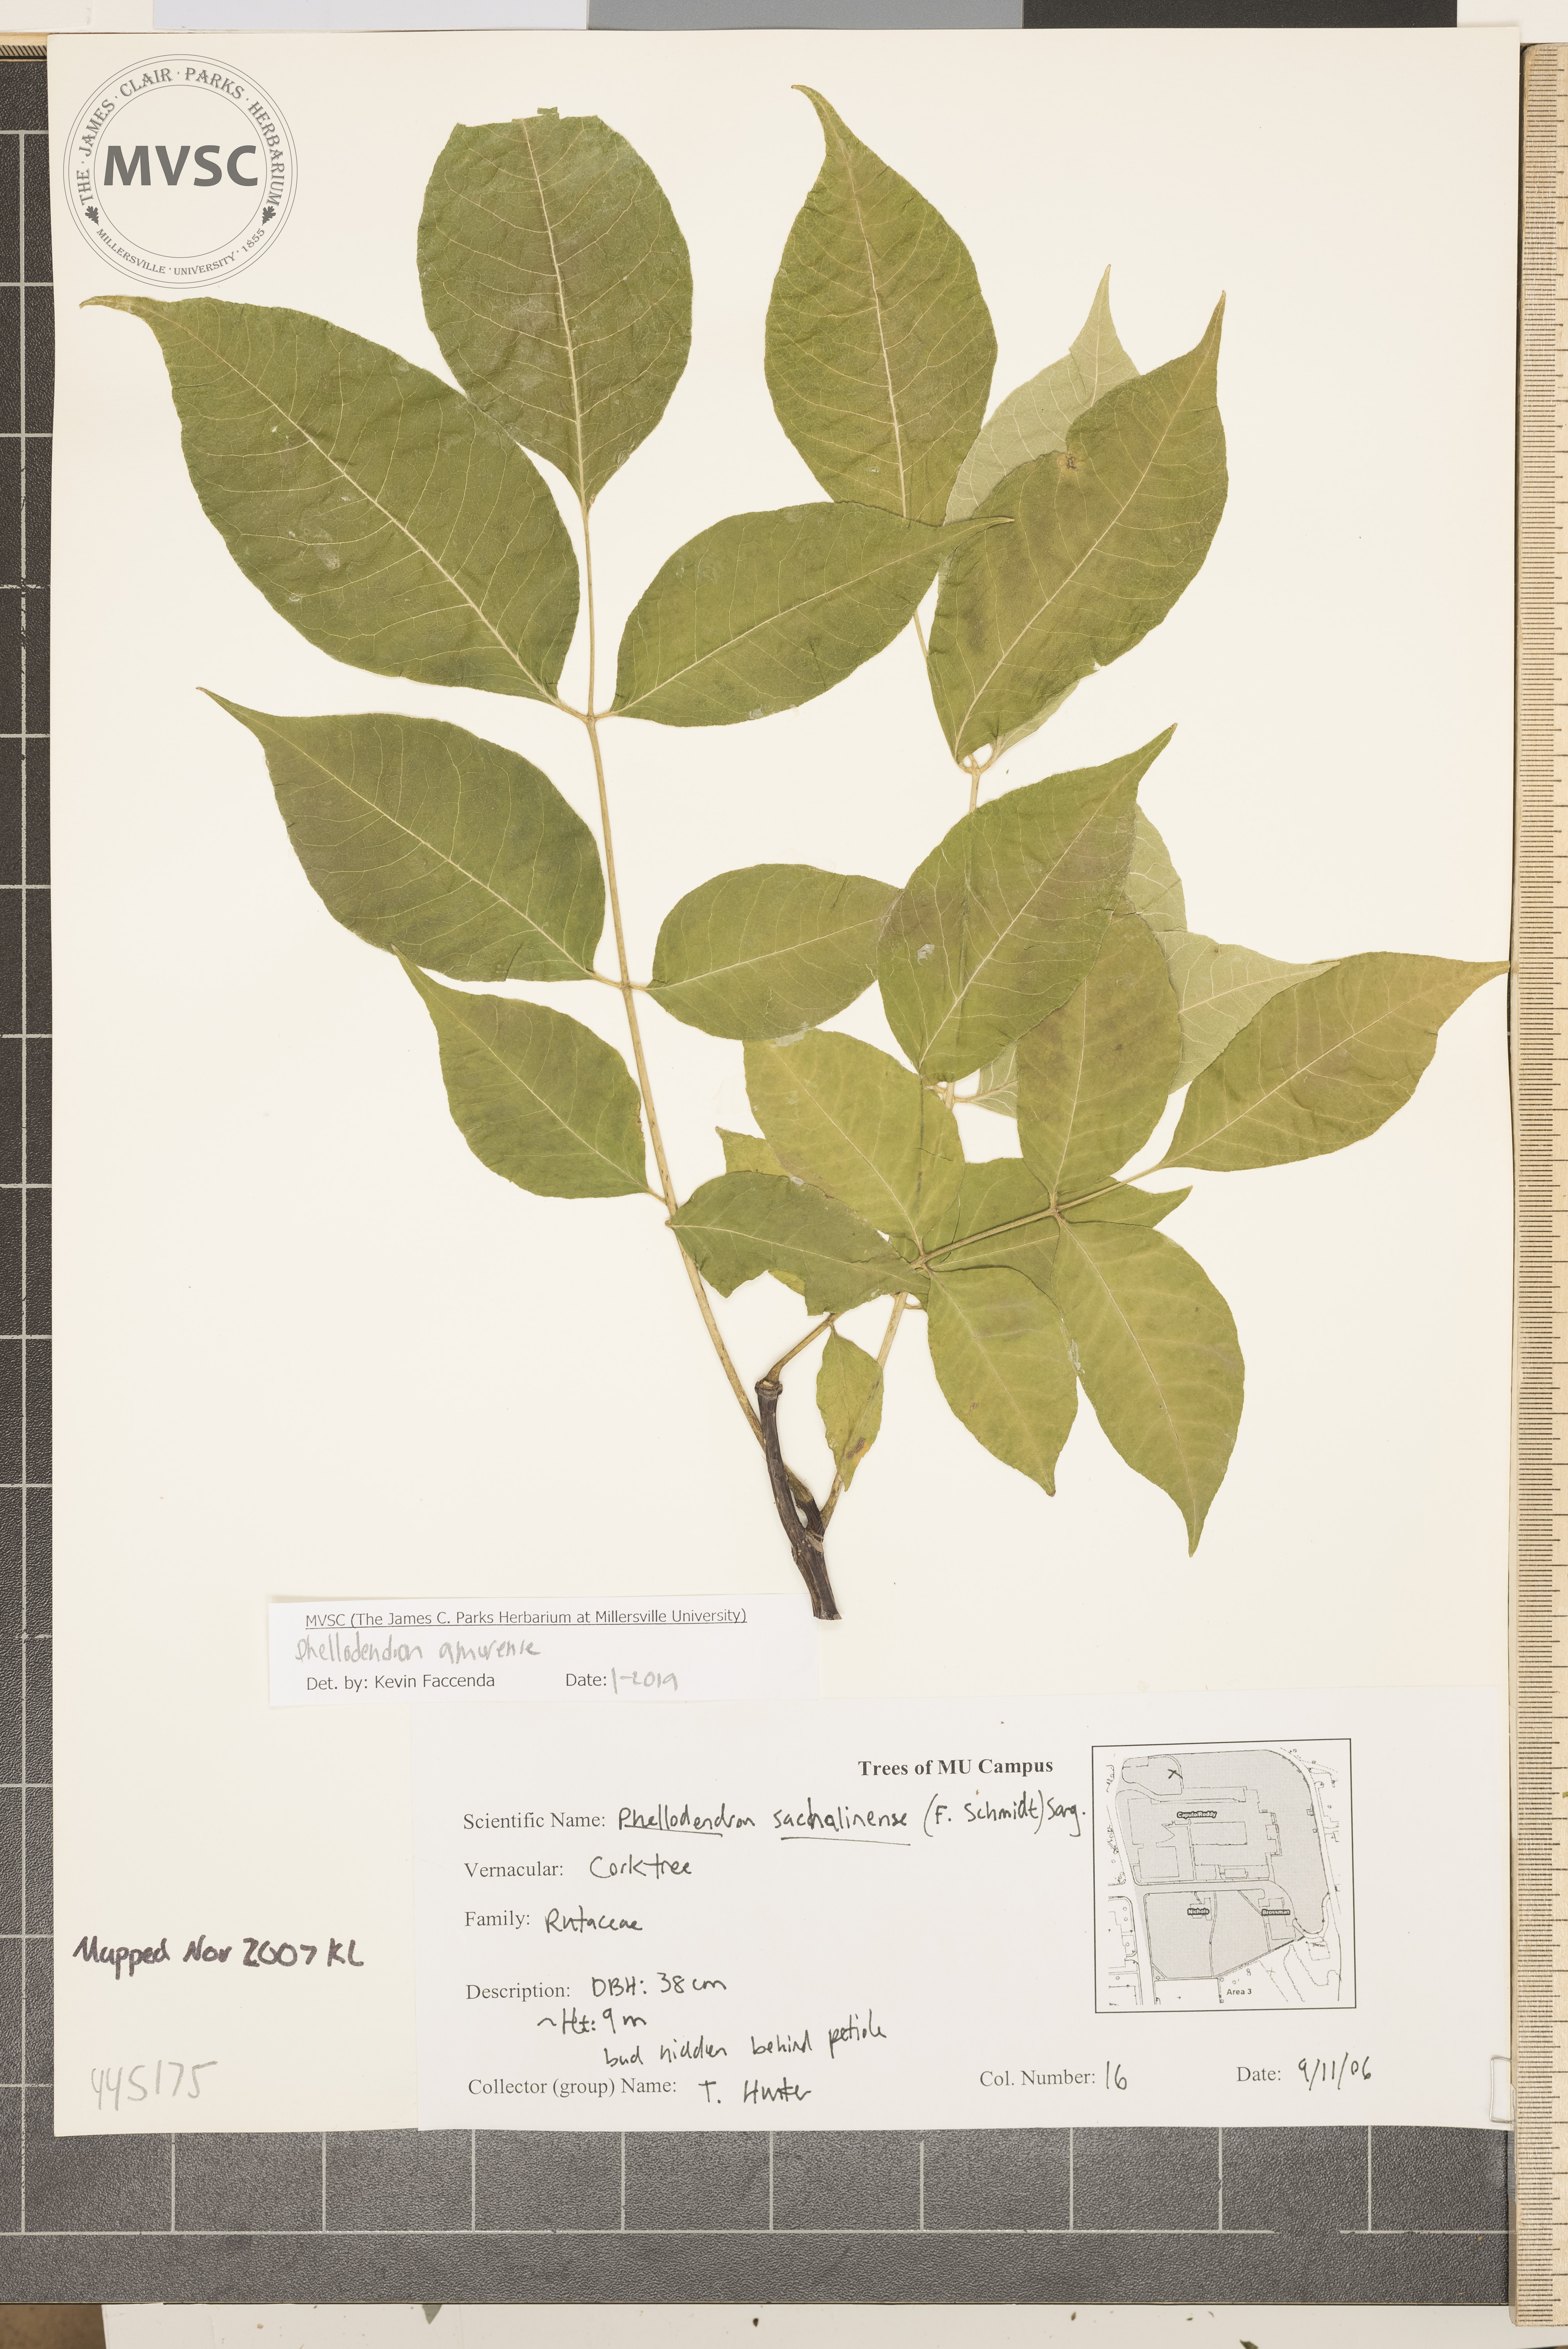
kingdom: Plantae
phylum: Tracheophyta
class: Magnoliopsida
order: Sapindales
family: Rutaceae
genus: Phellodendron
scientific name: Phellodendron amurense
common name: Amur corktree
